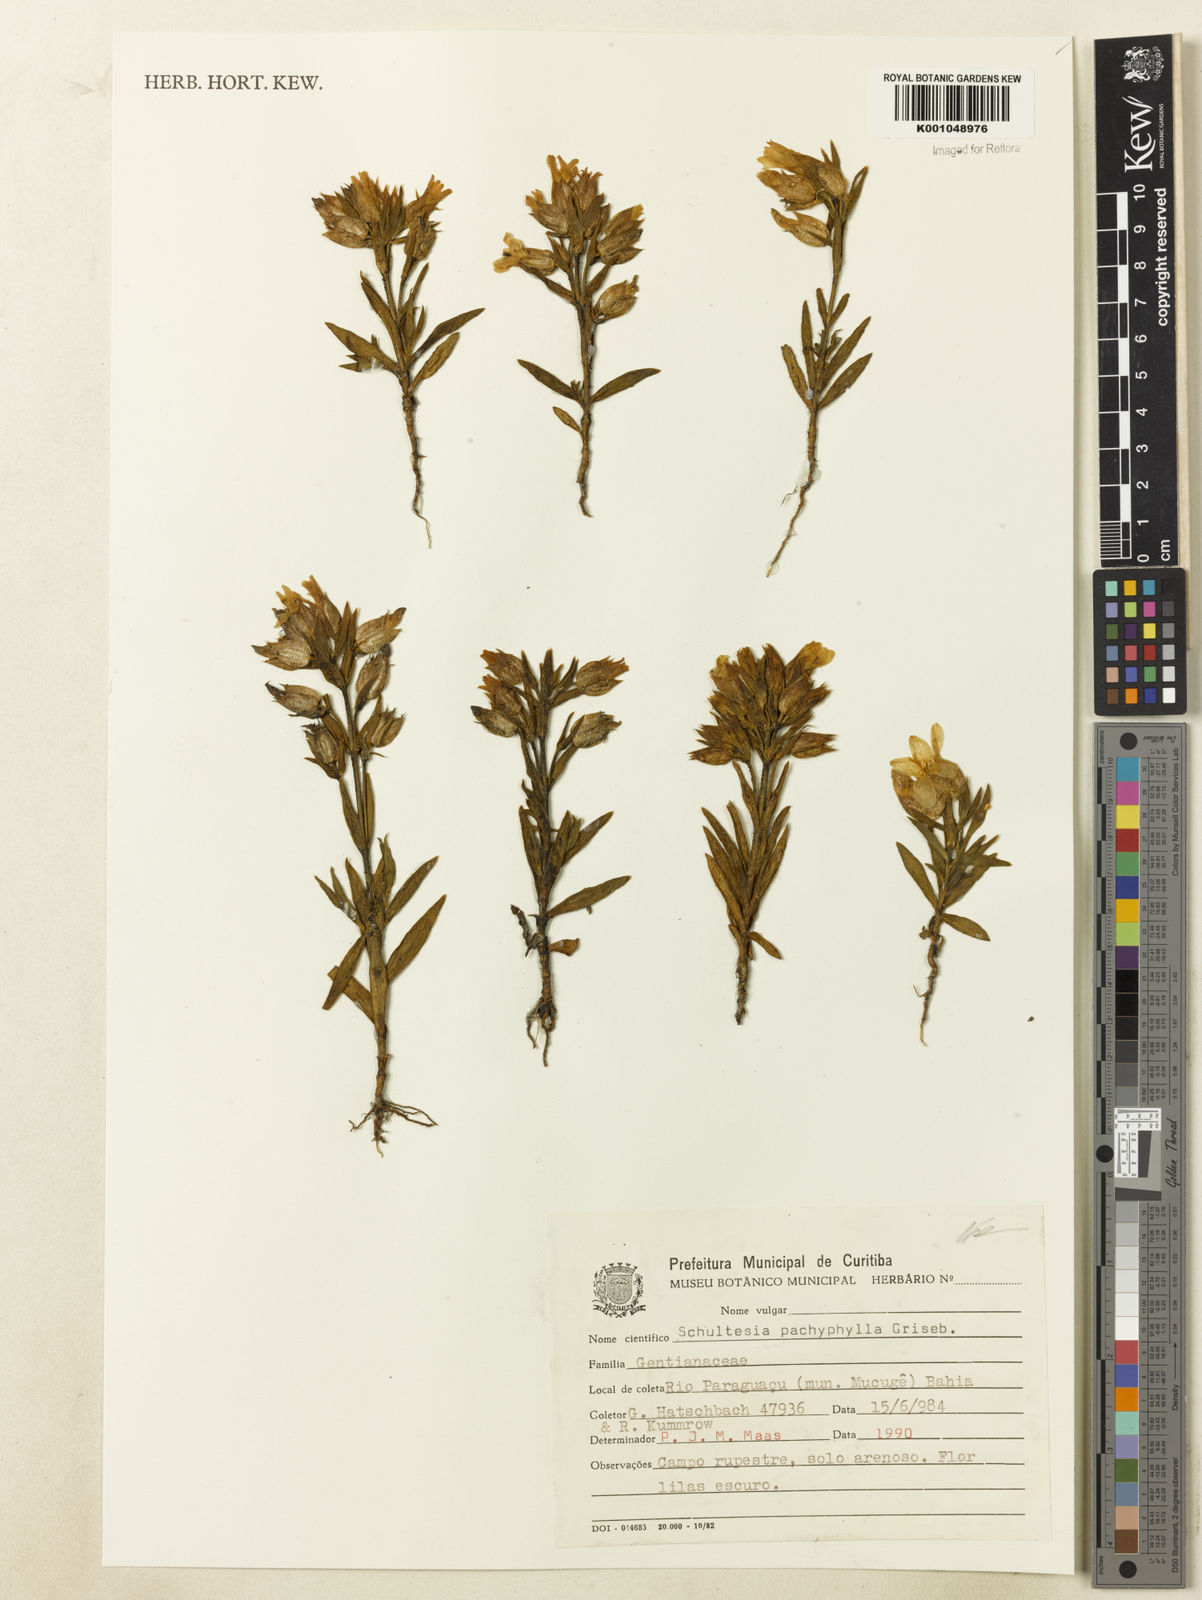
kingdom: Plantae
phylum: Tracheophyta
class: Magnoliopsida
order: Gentianales
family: Gentianaceae
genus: Schultesia
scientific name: Schultesia pachyphylla
